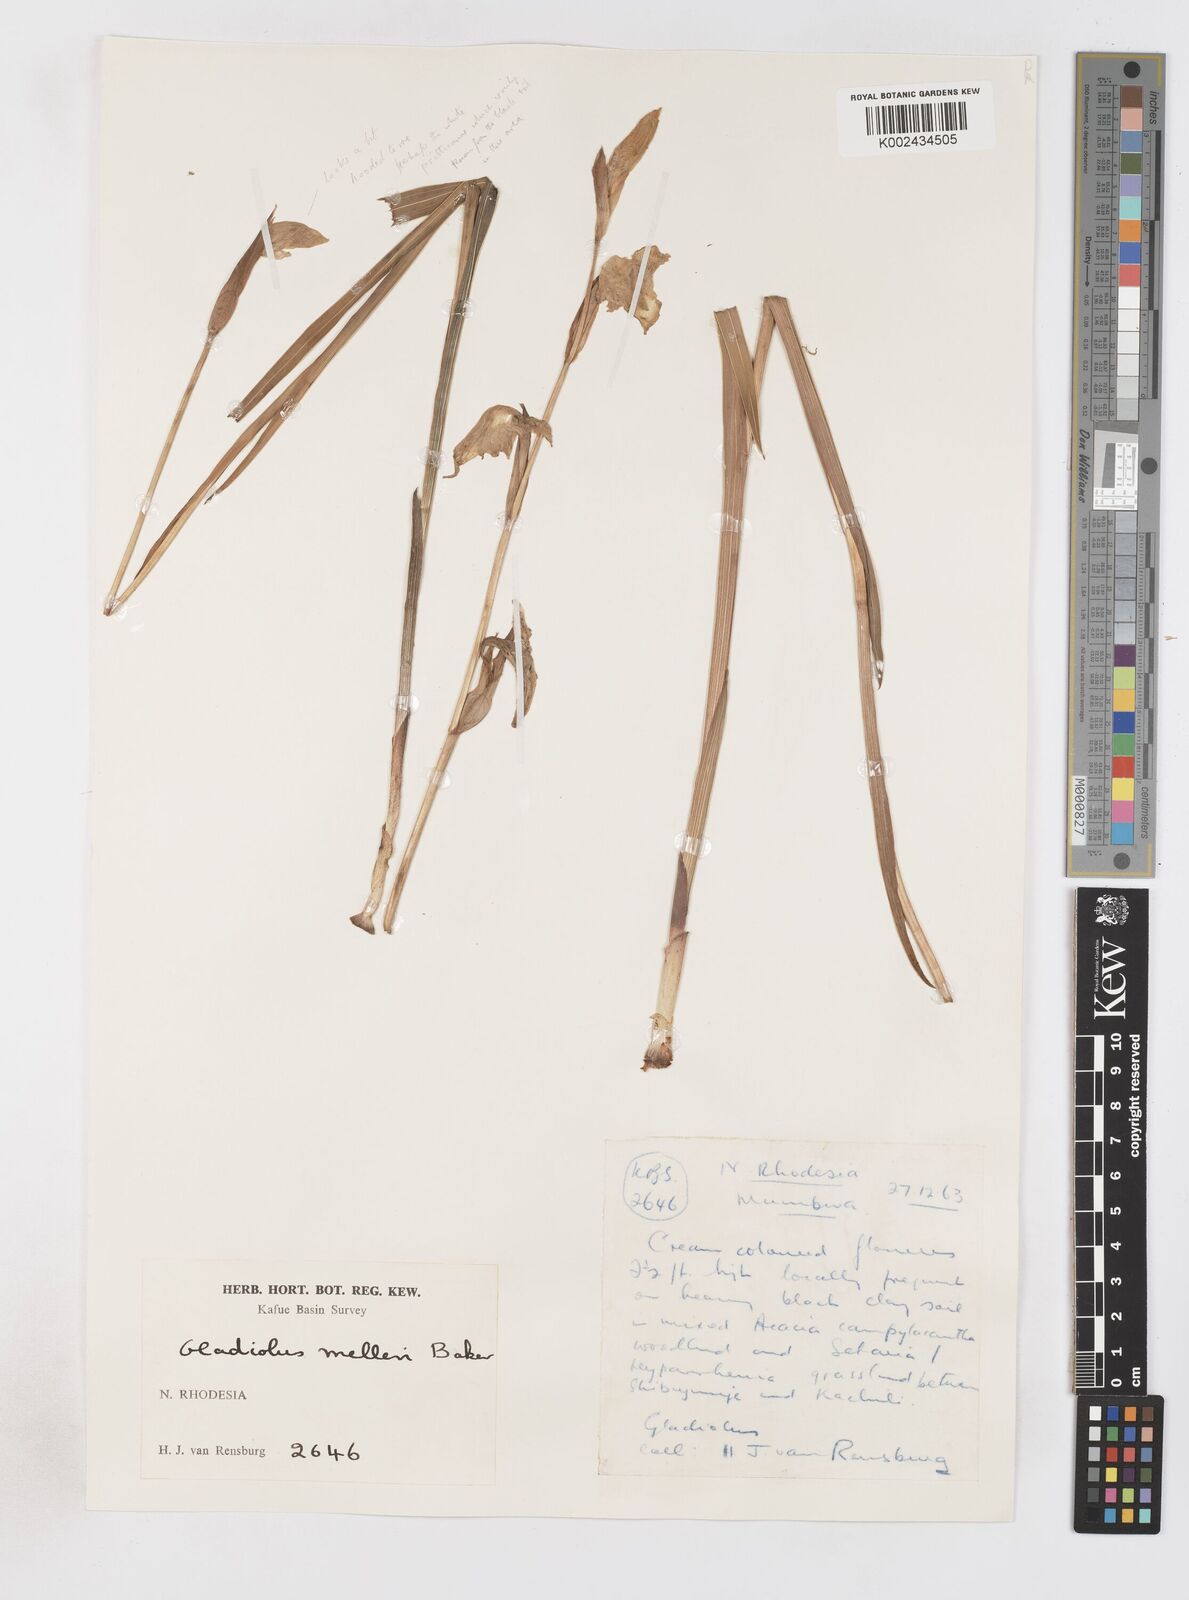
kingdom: Plantae
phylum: Tracheophyta
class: Liliopsida
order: Asparagales
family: Iridaceae
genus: Gladiolus
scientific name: Gladiolus dalenii
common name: Cornflag
